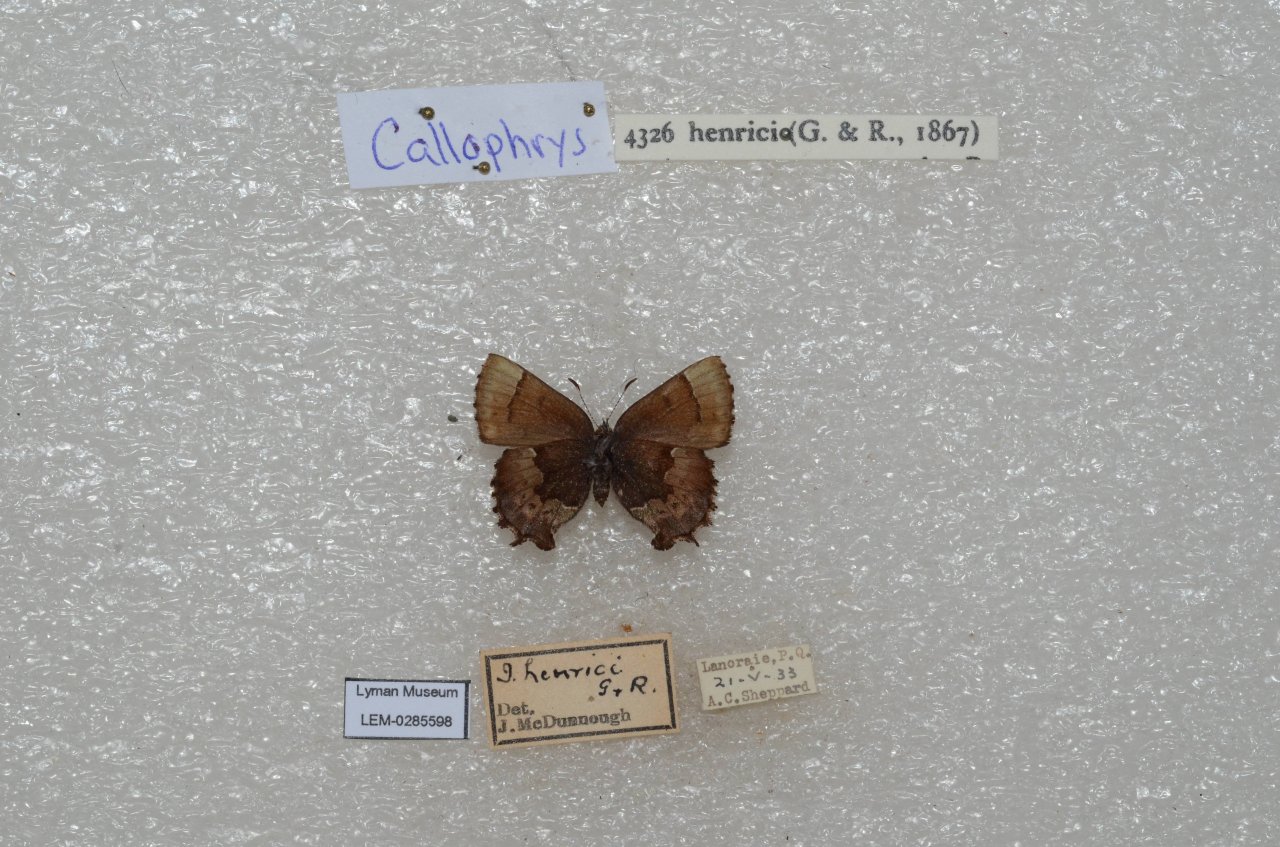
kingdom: Animalia
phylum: Arthropoda
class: Insecta
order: Lepidoptera
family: Lycaenidae
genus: Incisalia
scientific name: Incisalia henrici
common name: Henry's Elfin
